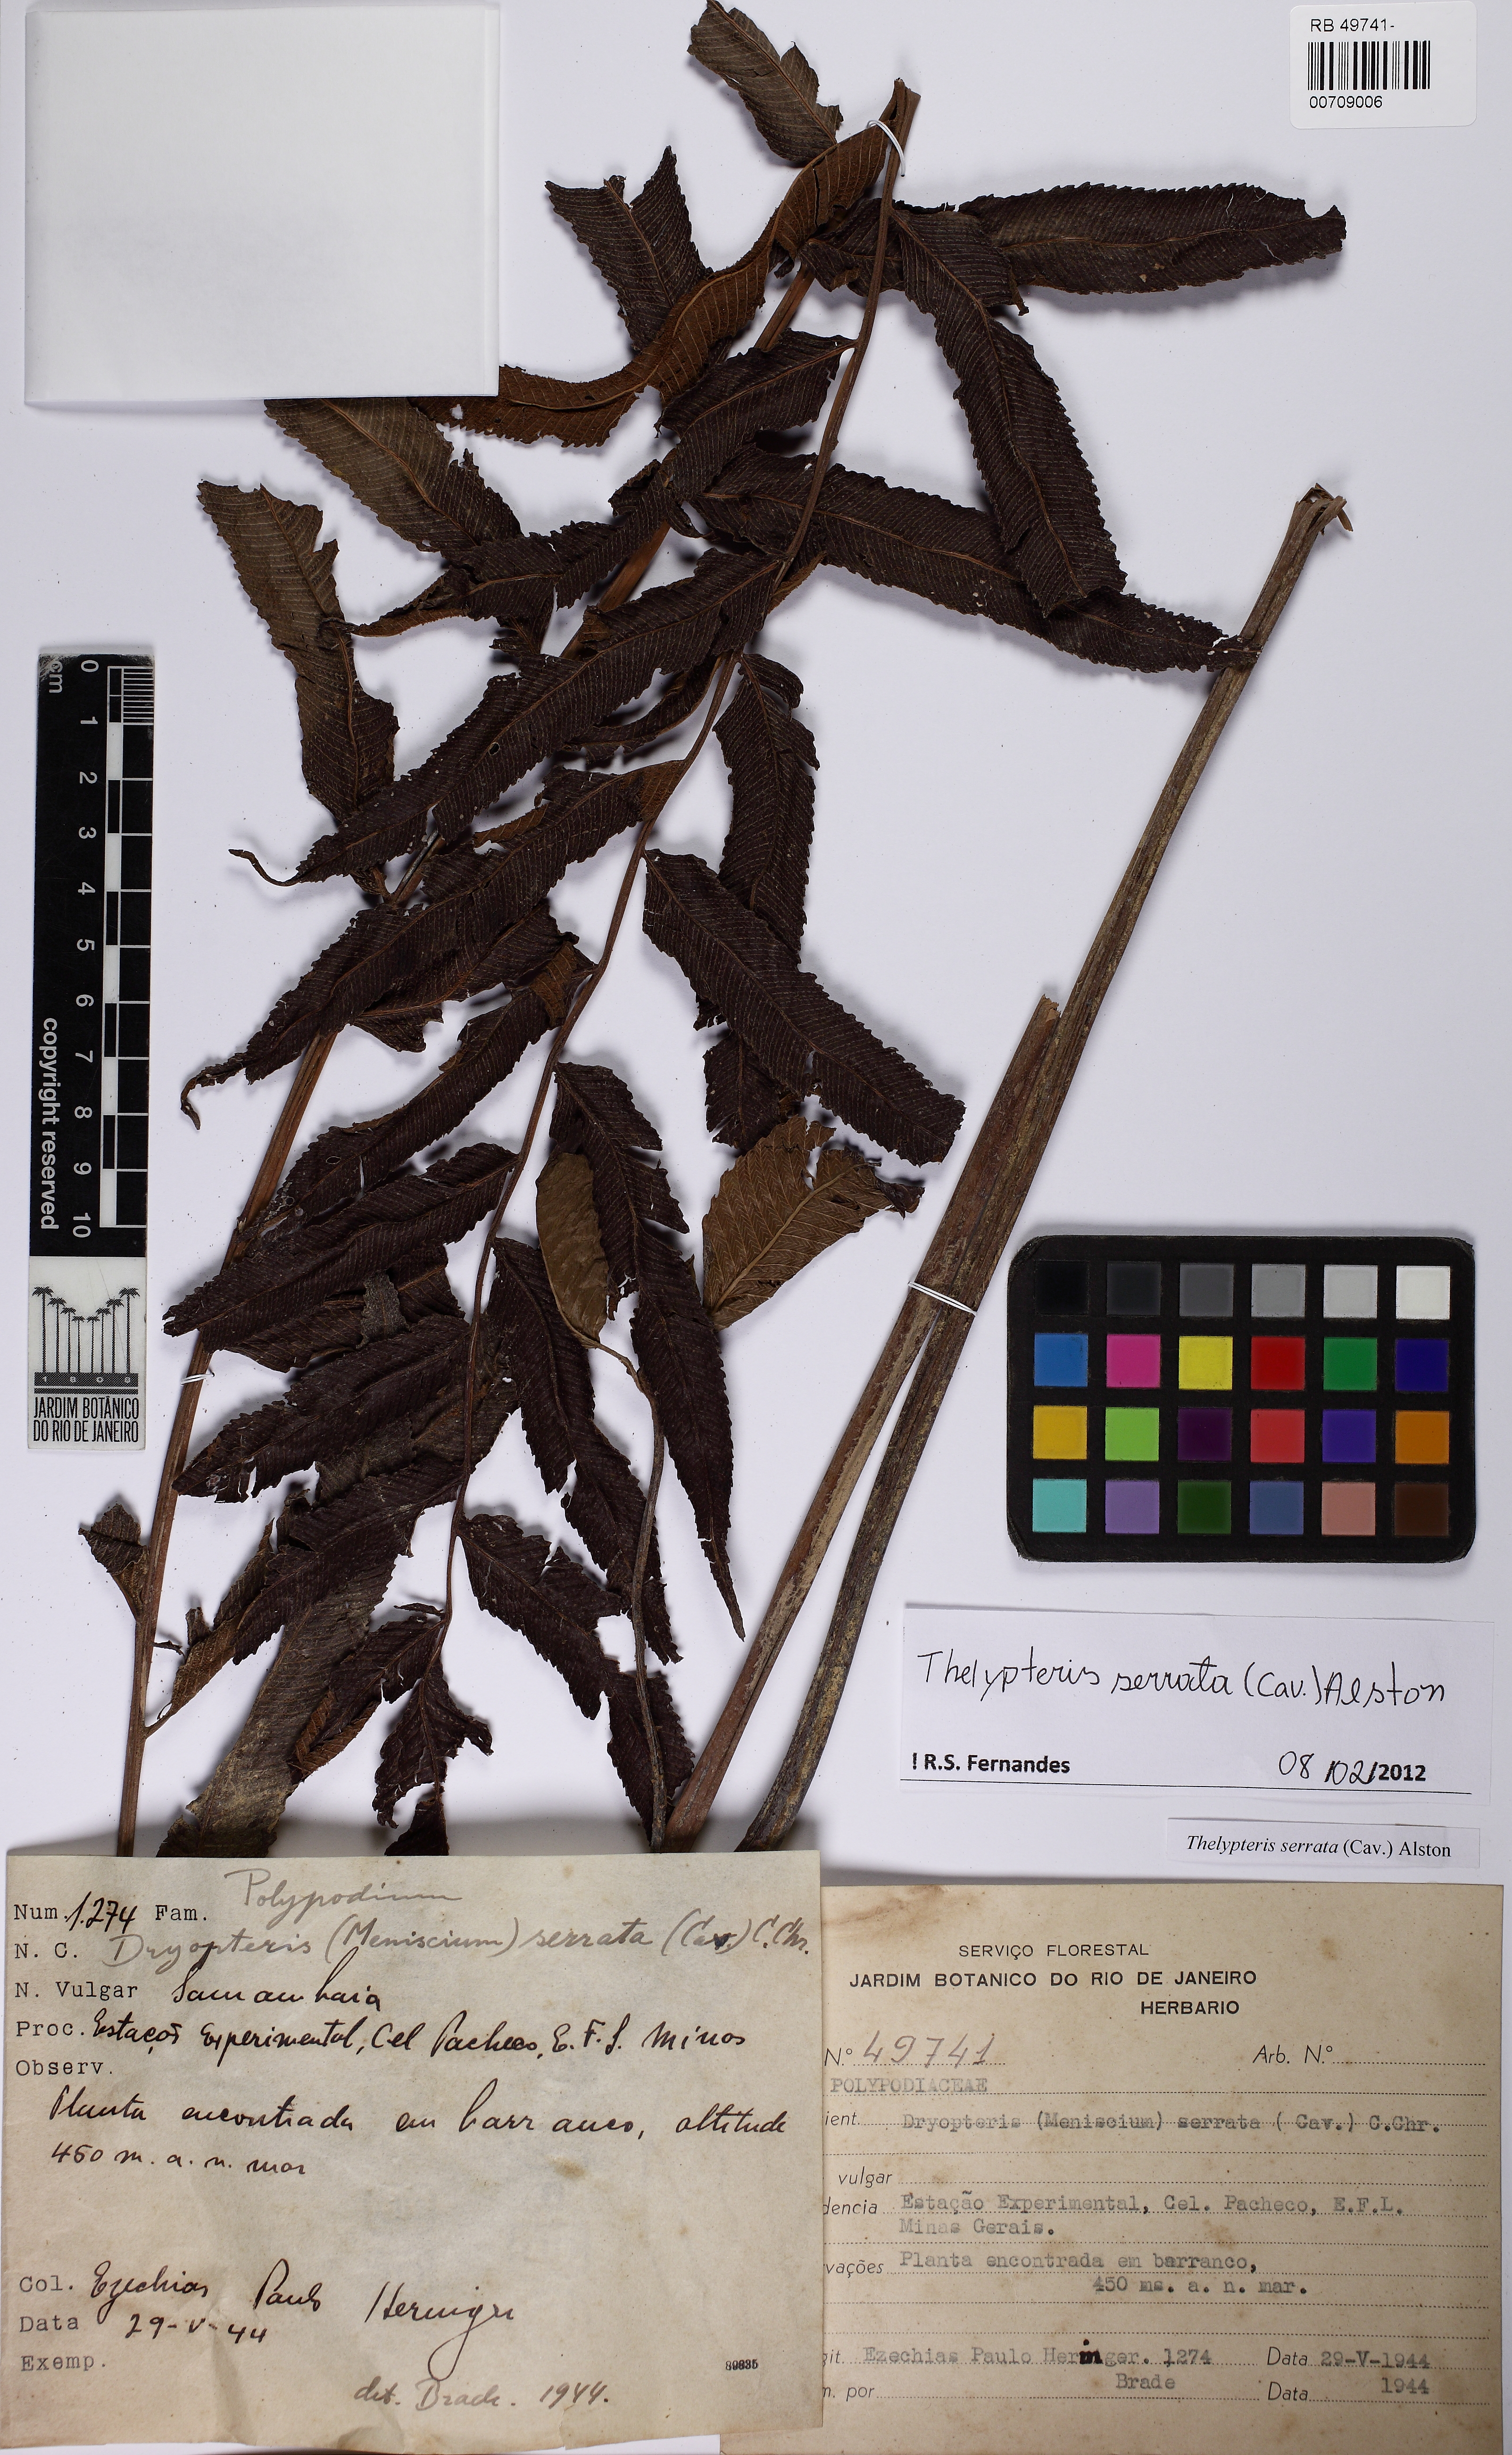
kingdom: Plantae
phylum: Tracheophyta
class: Polypodiopsida
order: Polypodiales
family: Thelypteridaceae
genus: Meniscium
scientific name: Meniscium serratum
